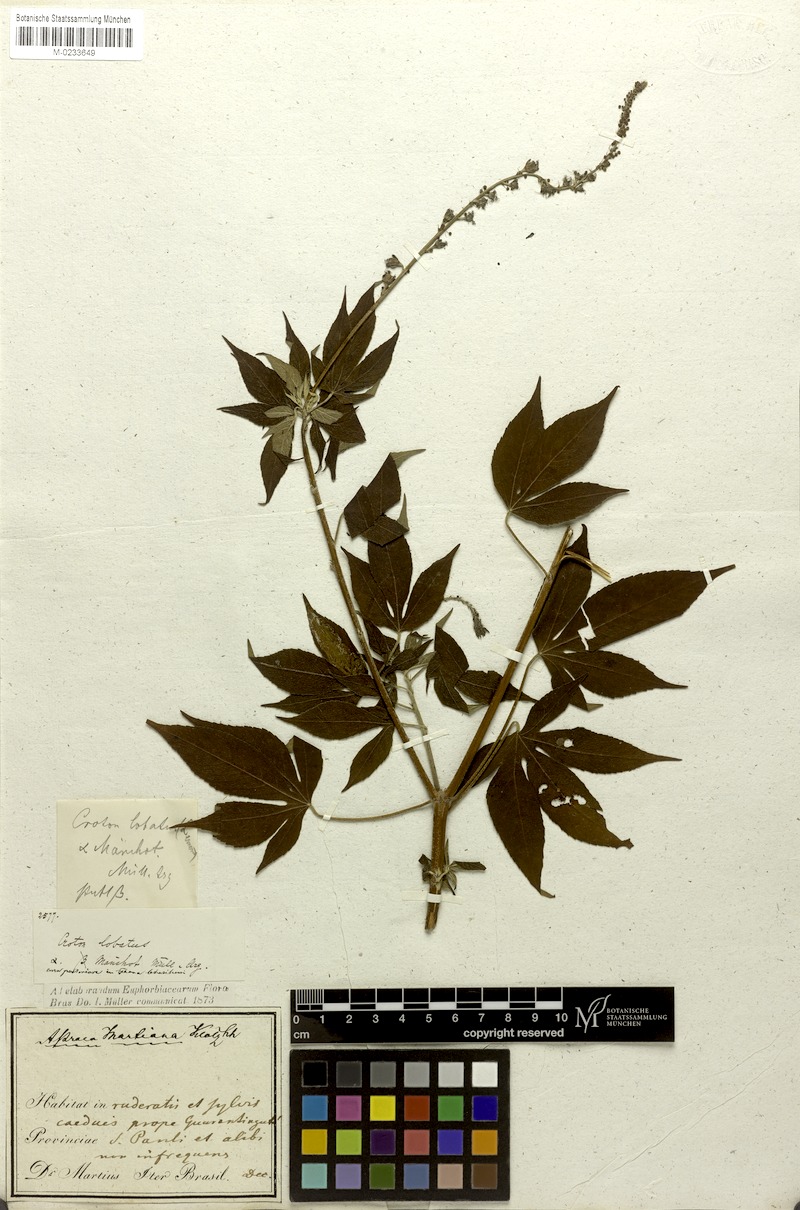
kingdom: Plantae
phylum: Tracheophyta
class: Magnoliopsida
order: Malpighiales
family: Euphorbiaceae
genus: Astraea
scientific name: Astraea lobata
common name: Lobed croton
